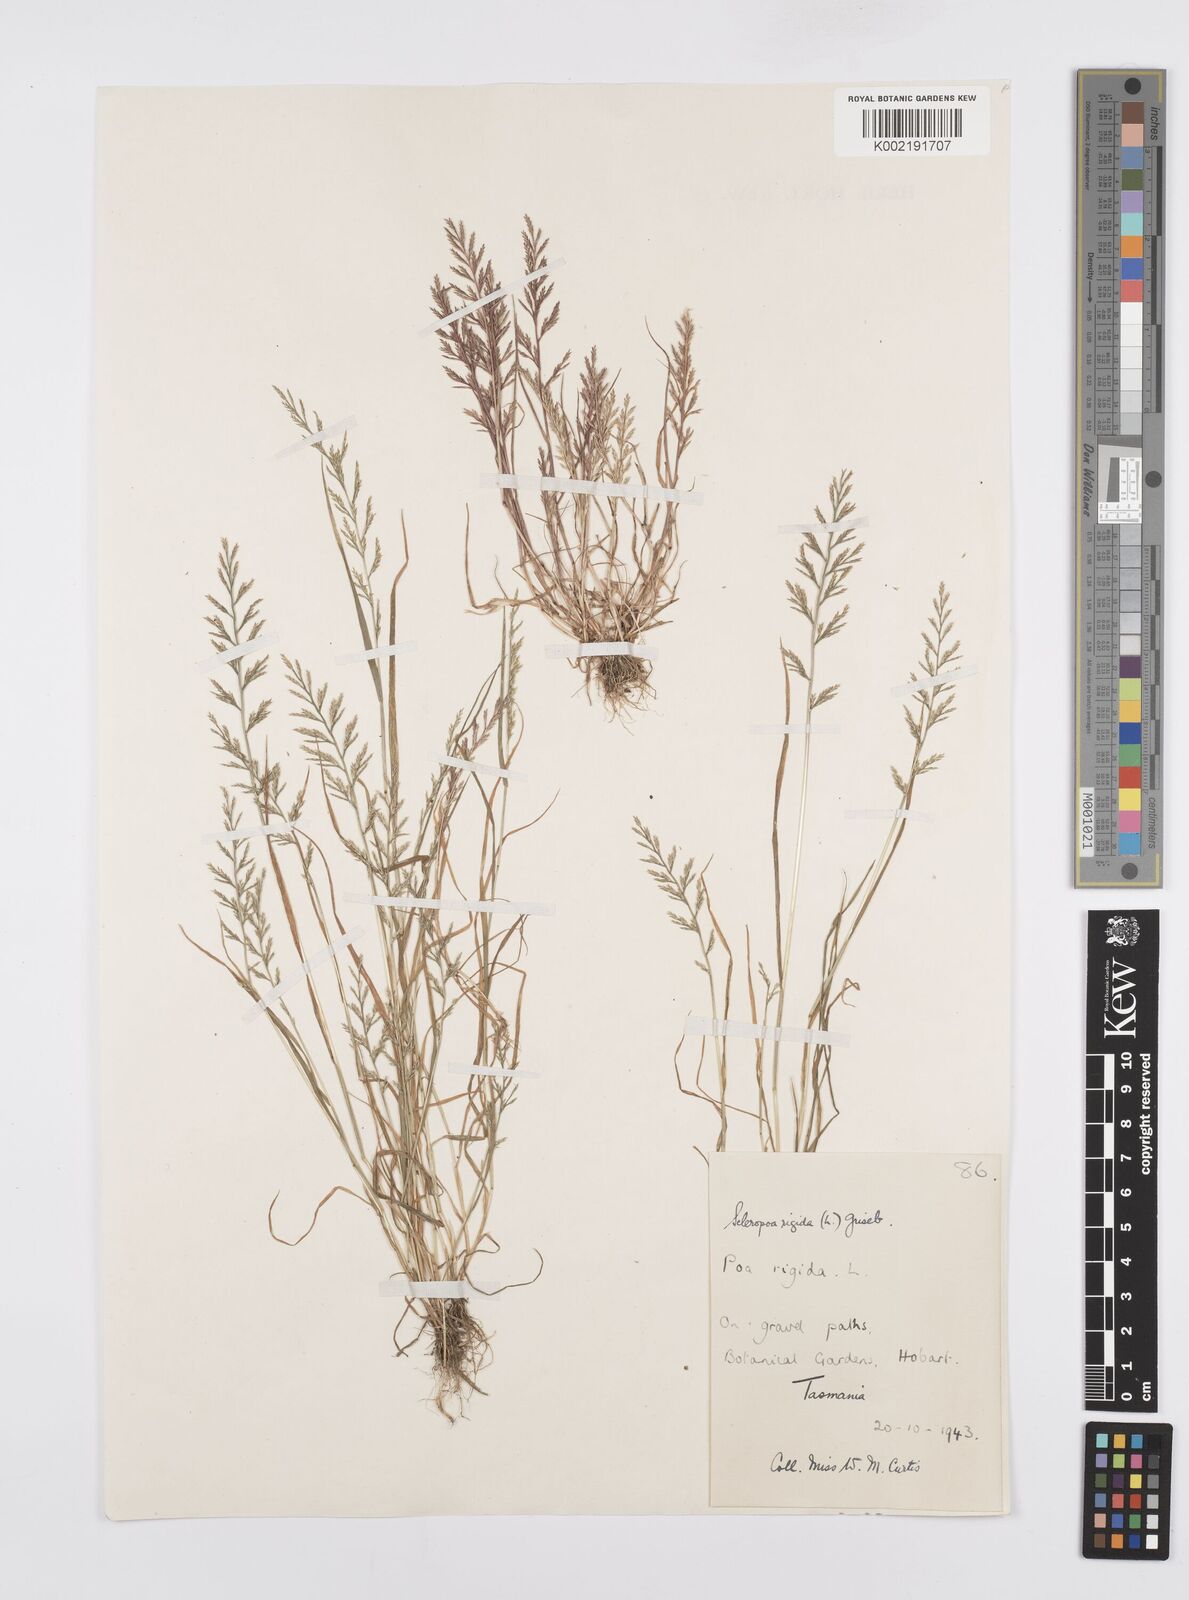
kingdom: Plantae
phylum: Tracheophyta
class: Liliopsida
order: Poales
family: Poaceae
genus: Catapodium
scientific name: Catapodium rigidum
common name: Fern-grass
